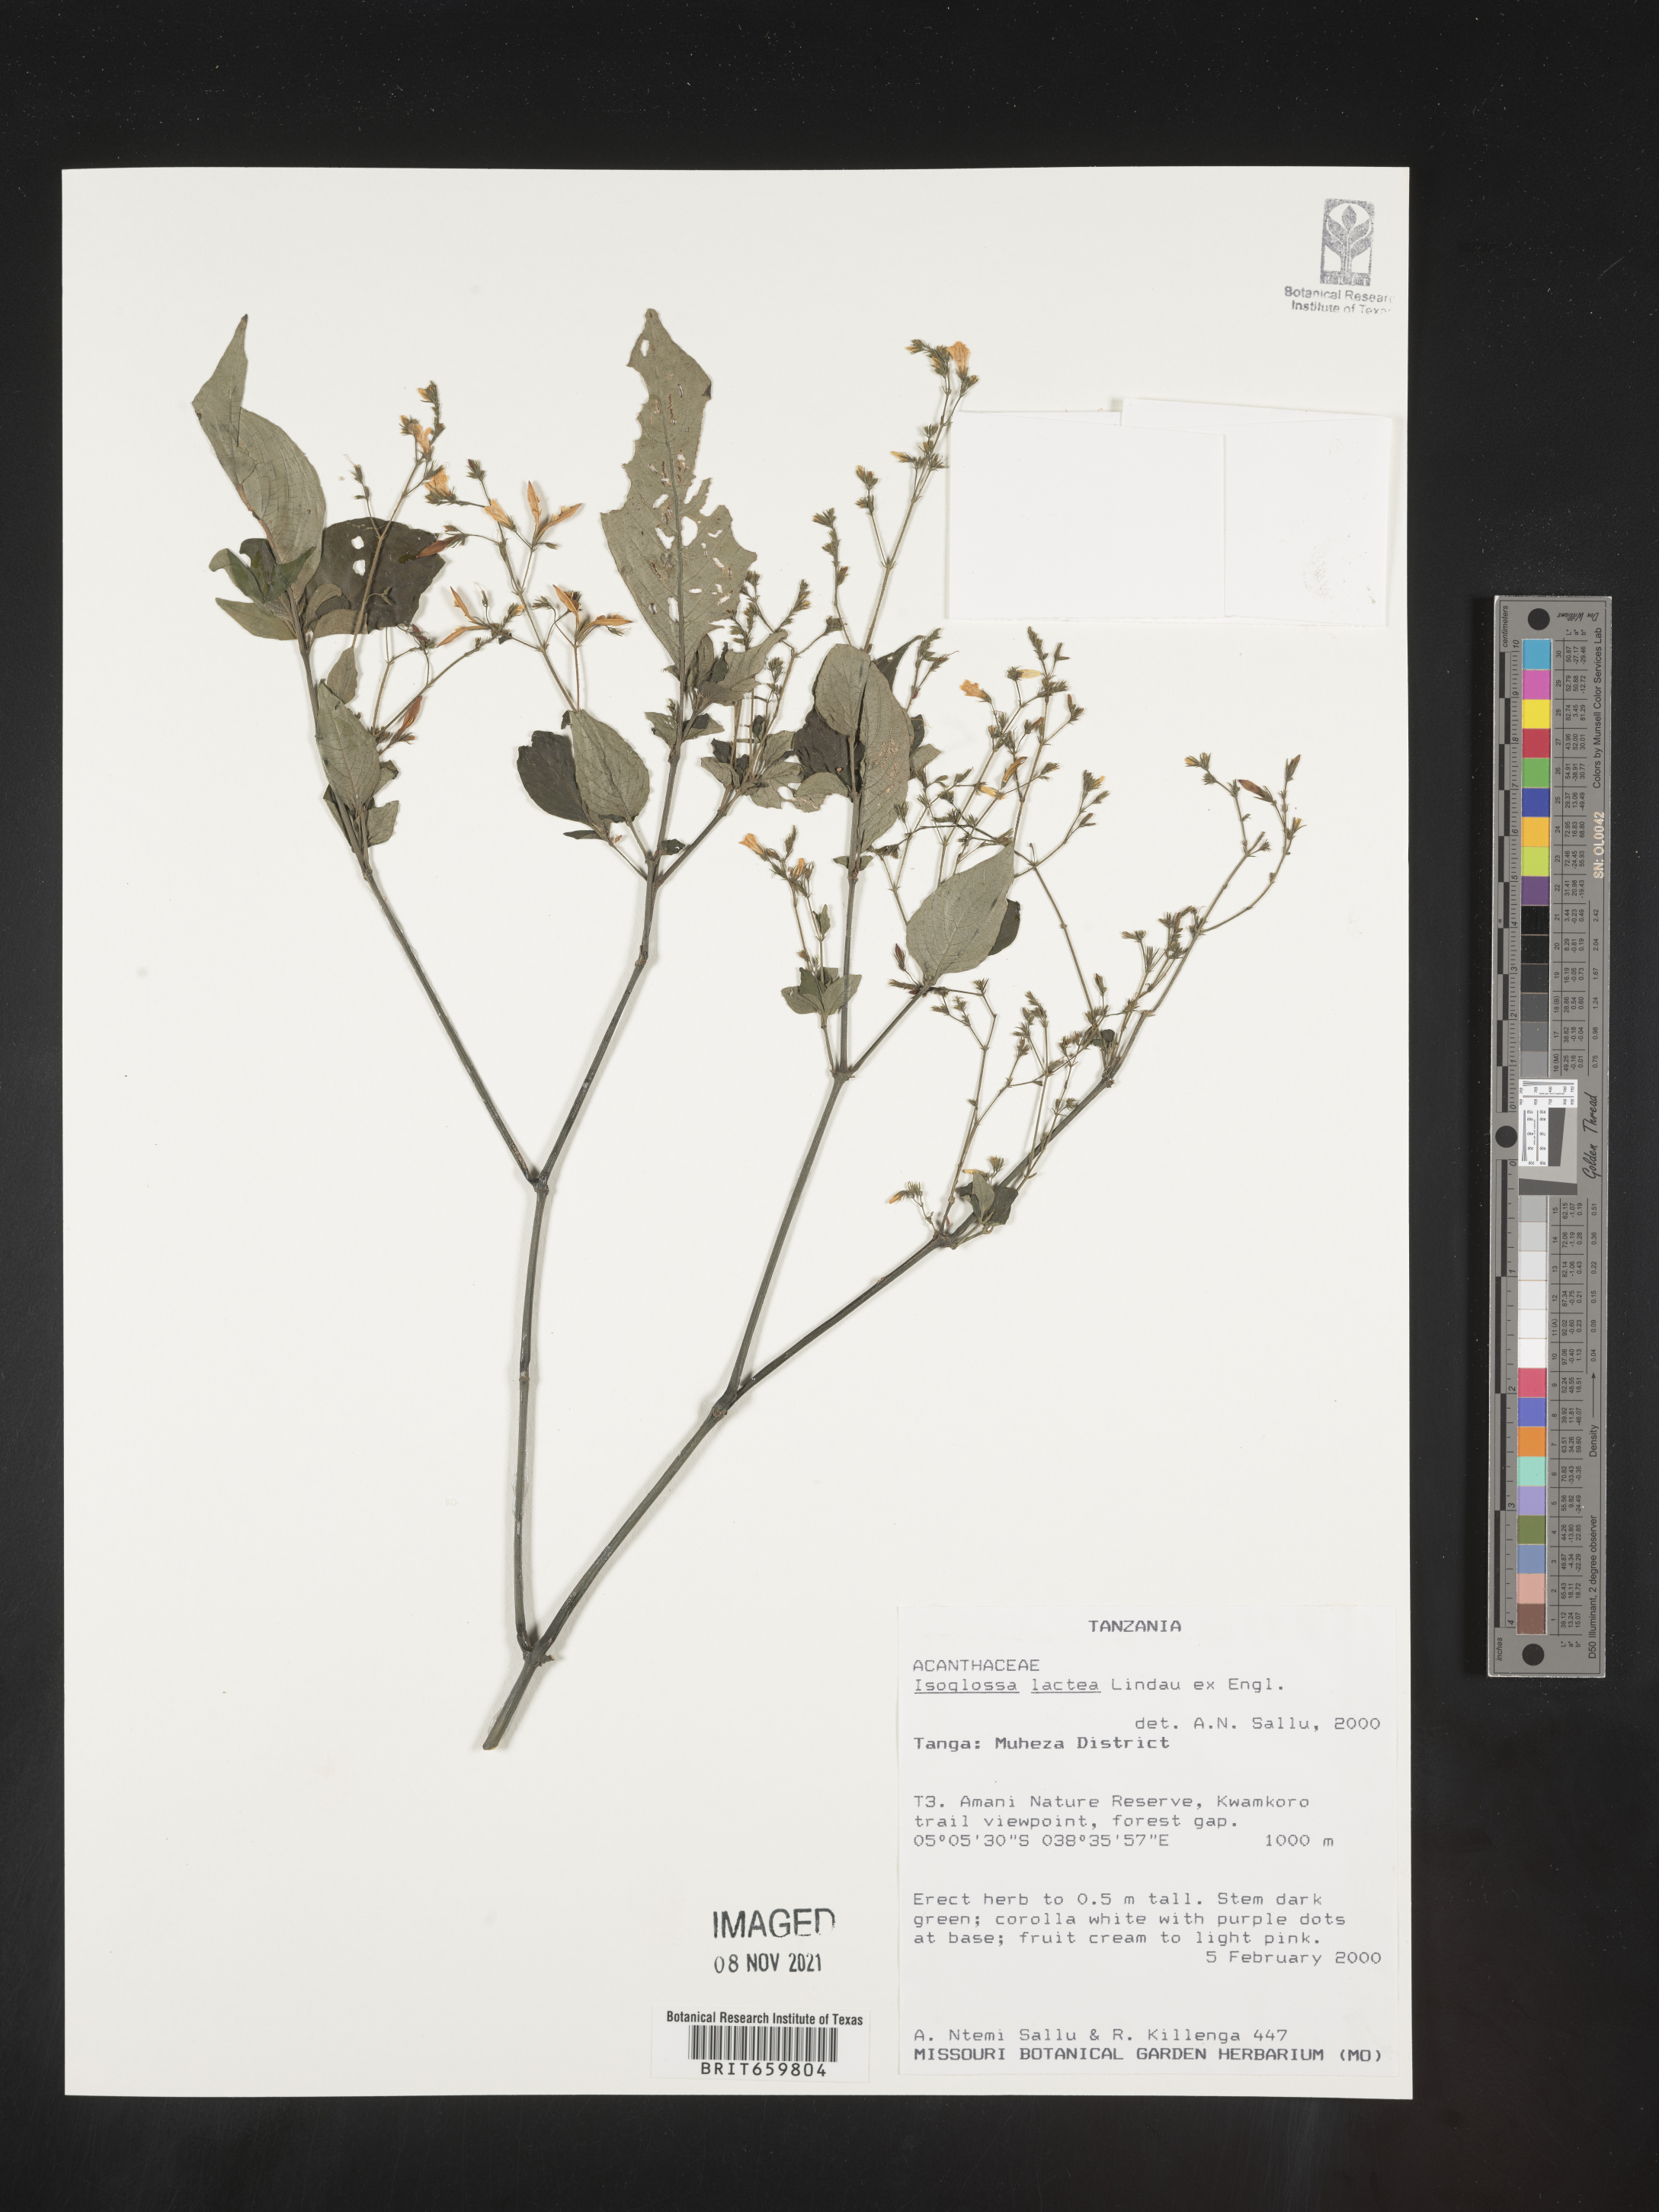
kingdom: Plantae
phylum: Tracheophyta
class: Magnoliopsida
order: Lamiales
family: Acanthaceae
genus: Isoglossa
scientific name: Isoglossa lactea
